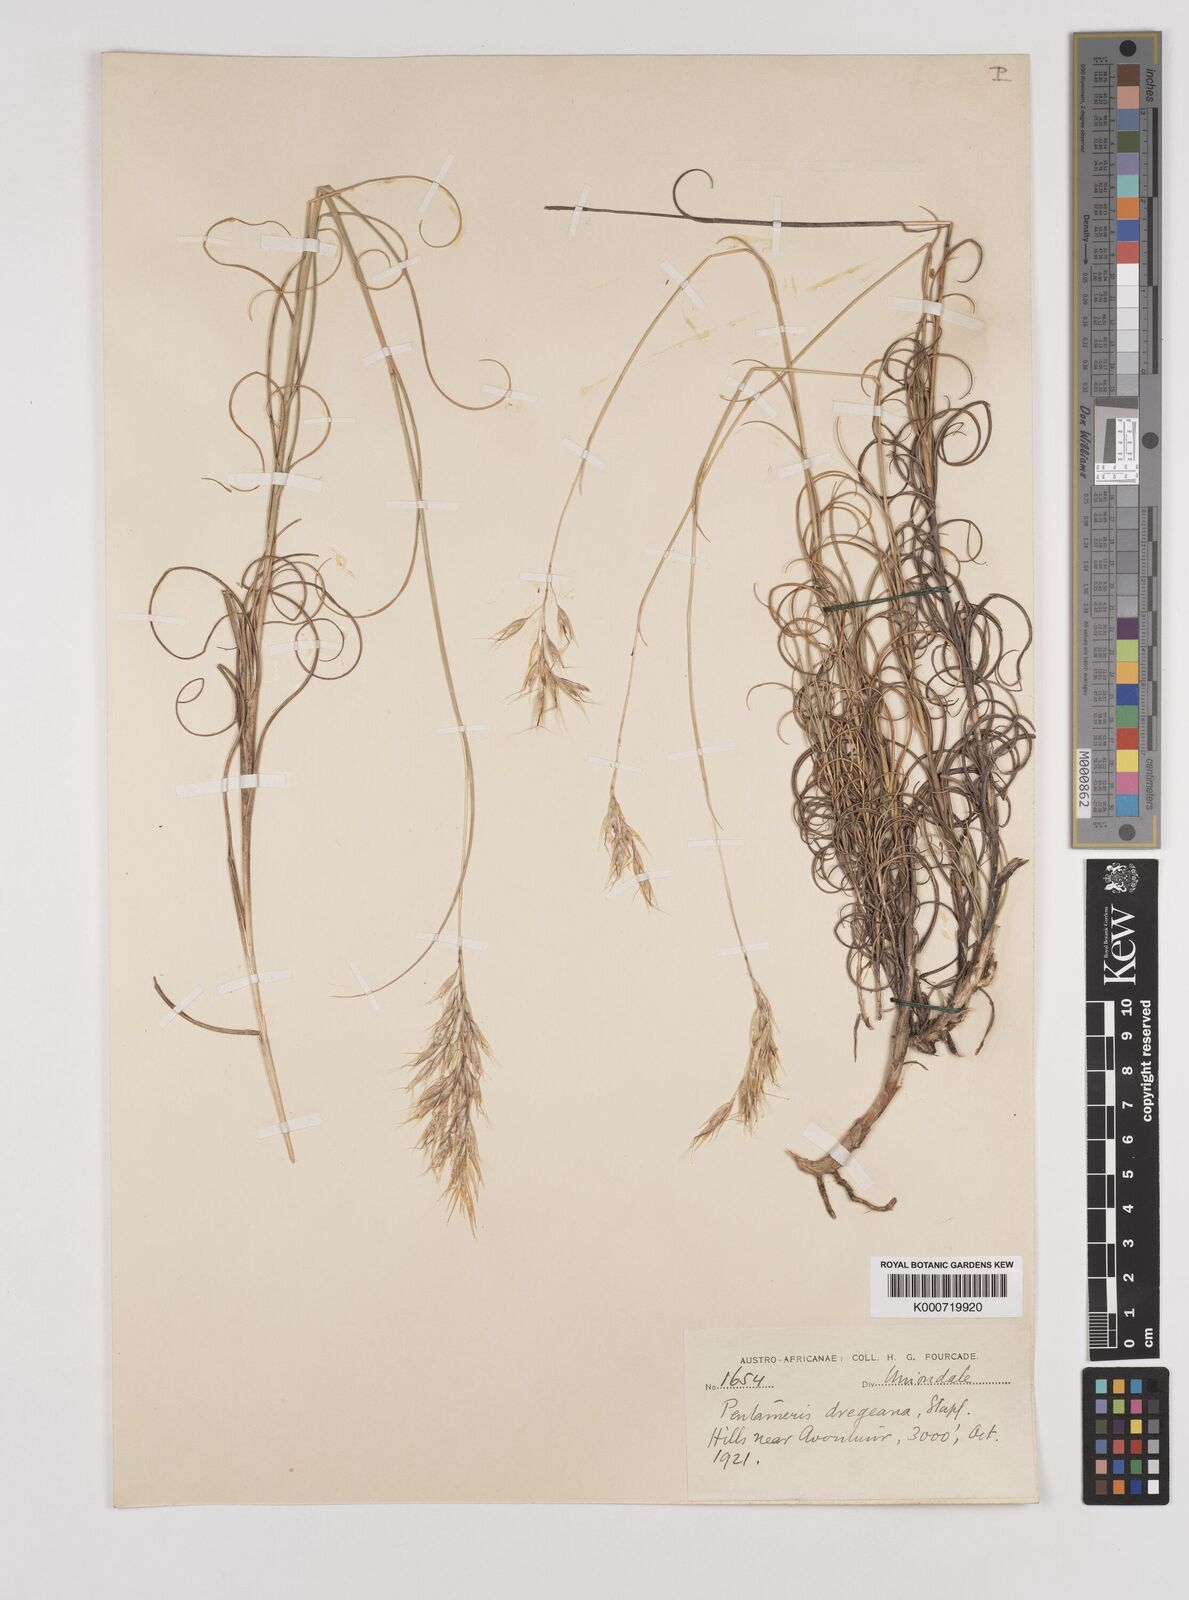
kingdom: Plantae
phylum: Tracheophyta
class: Liliopsida
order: Poales
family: Poaceae
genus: Pentameris
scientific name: Pentameris dregeana
